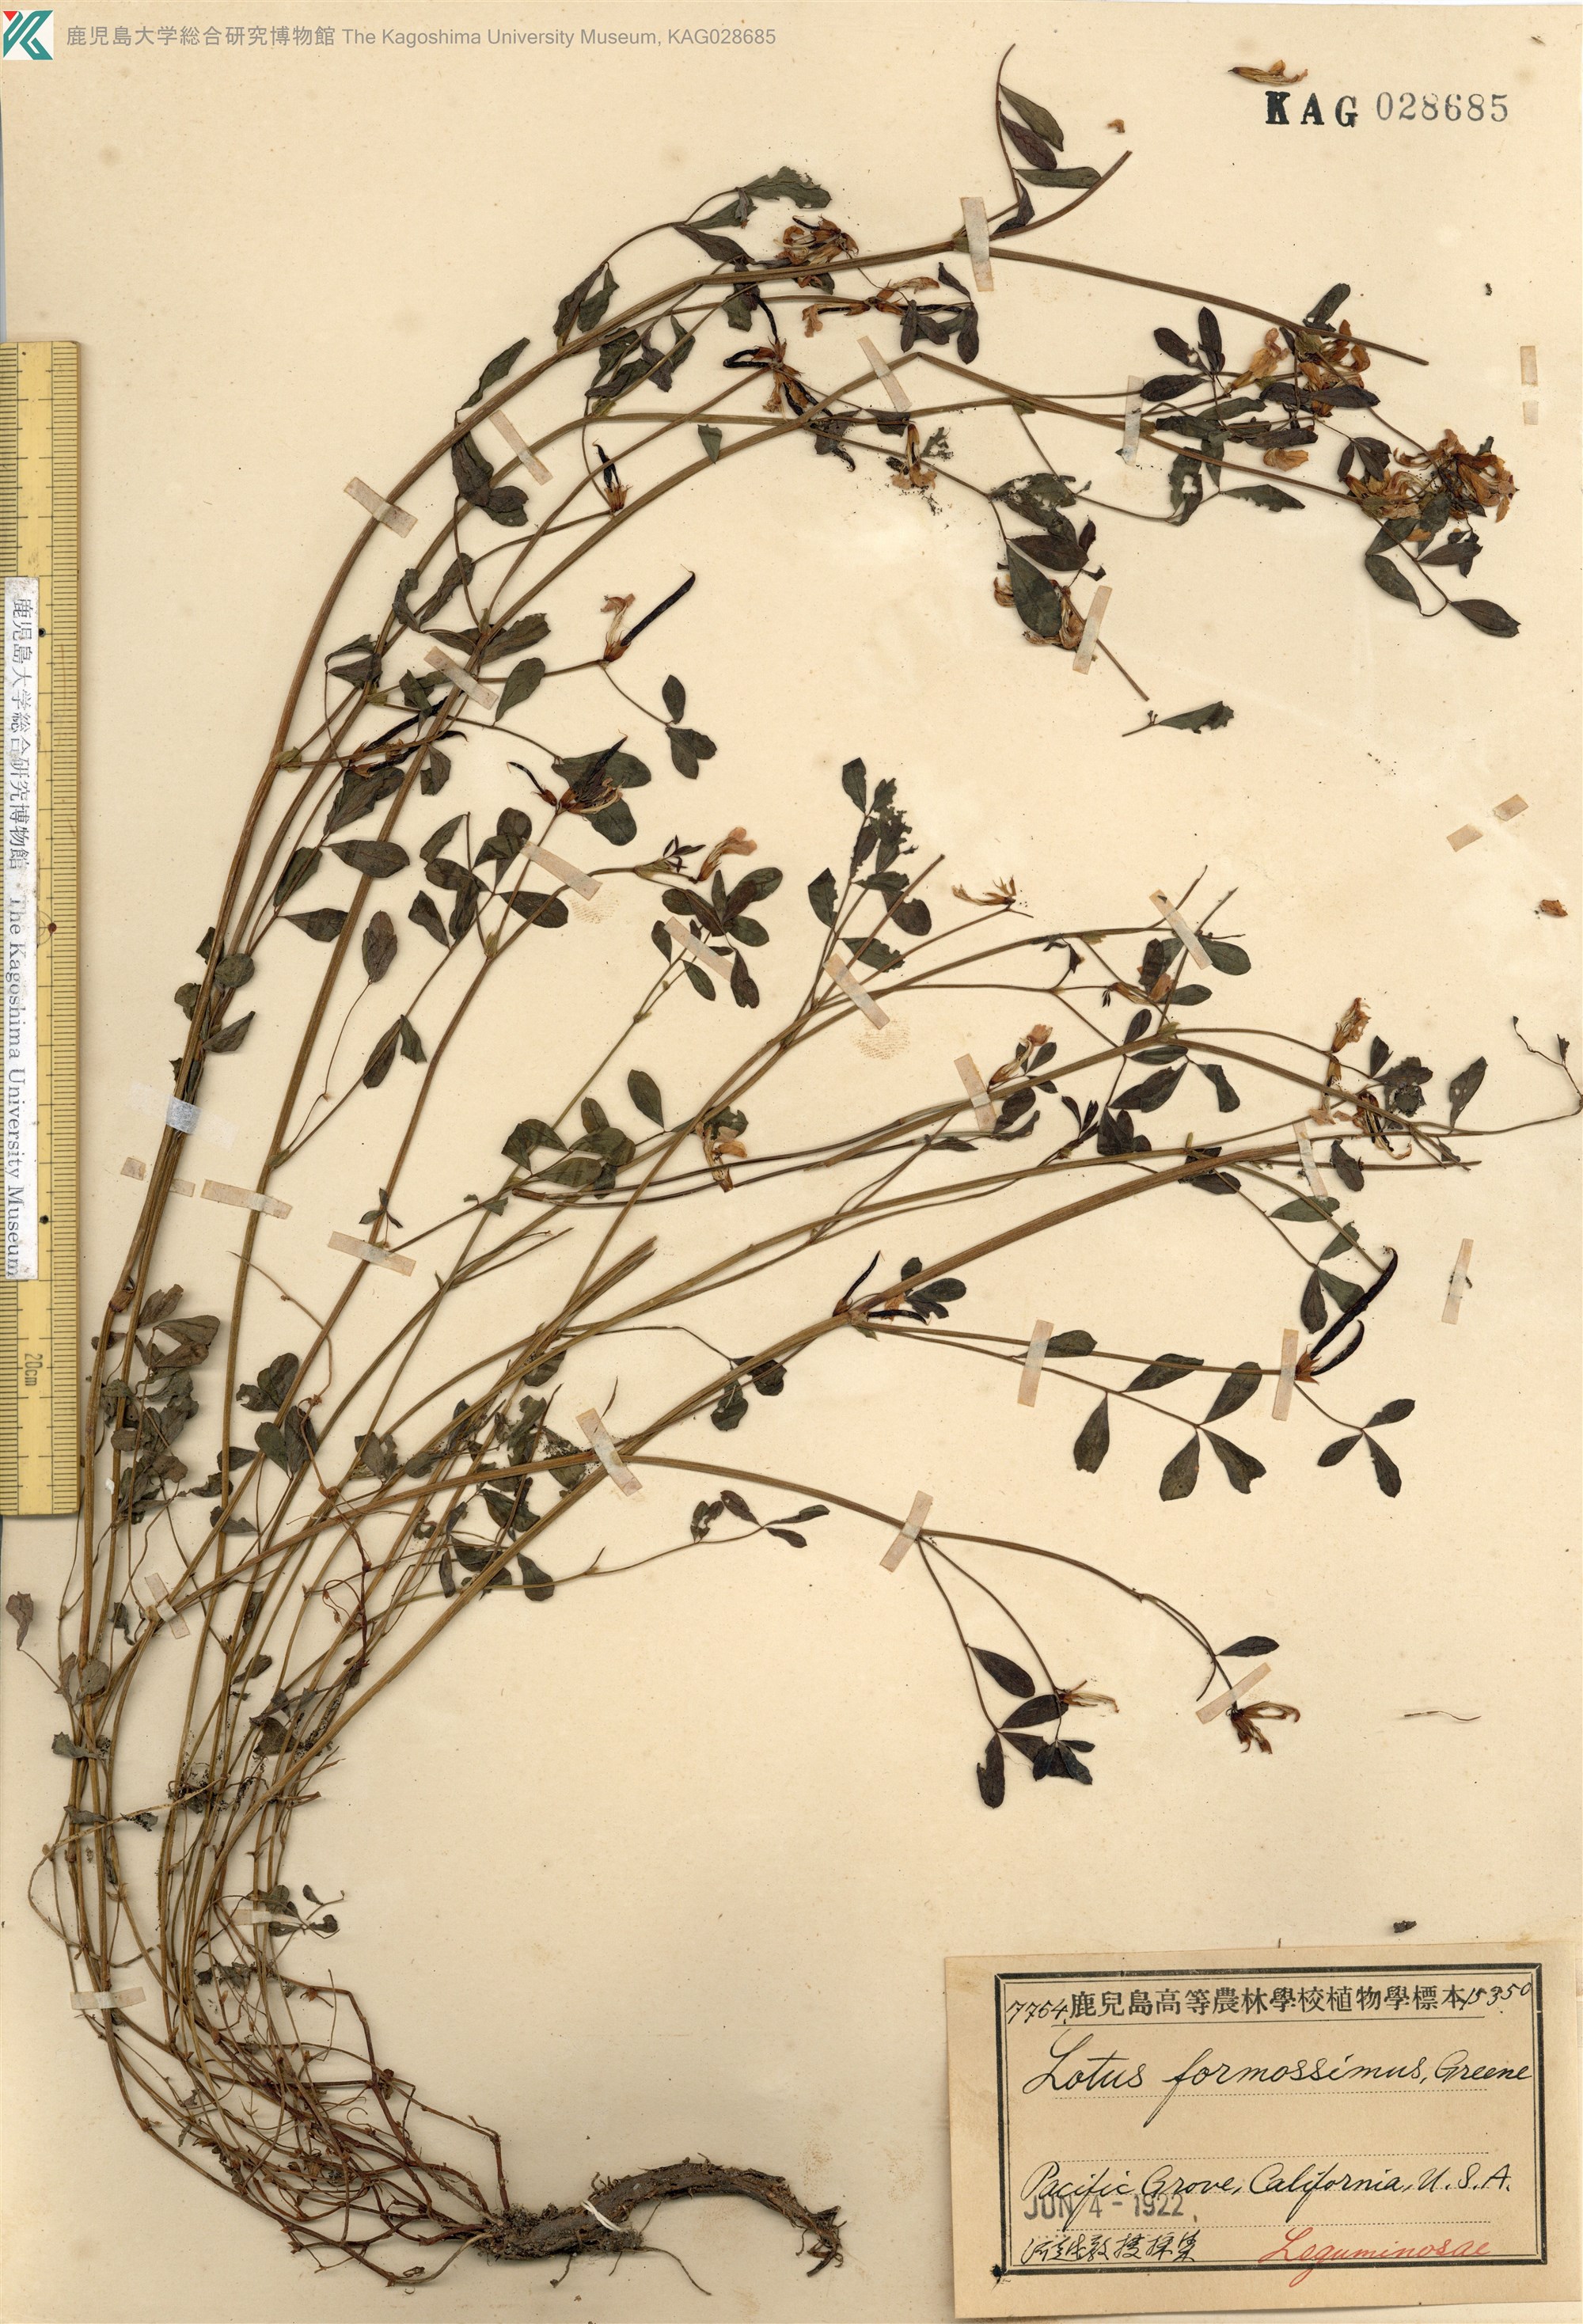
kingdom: Plantae
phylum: Tracheophyta
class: Magnoliopsida
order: Fabales
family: Fabaceae
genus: Hosackia
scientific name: Hosackia gracilis
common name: Seaside bird's-foot lotus
